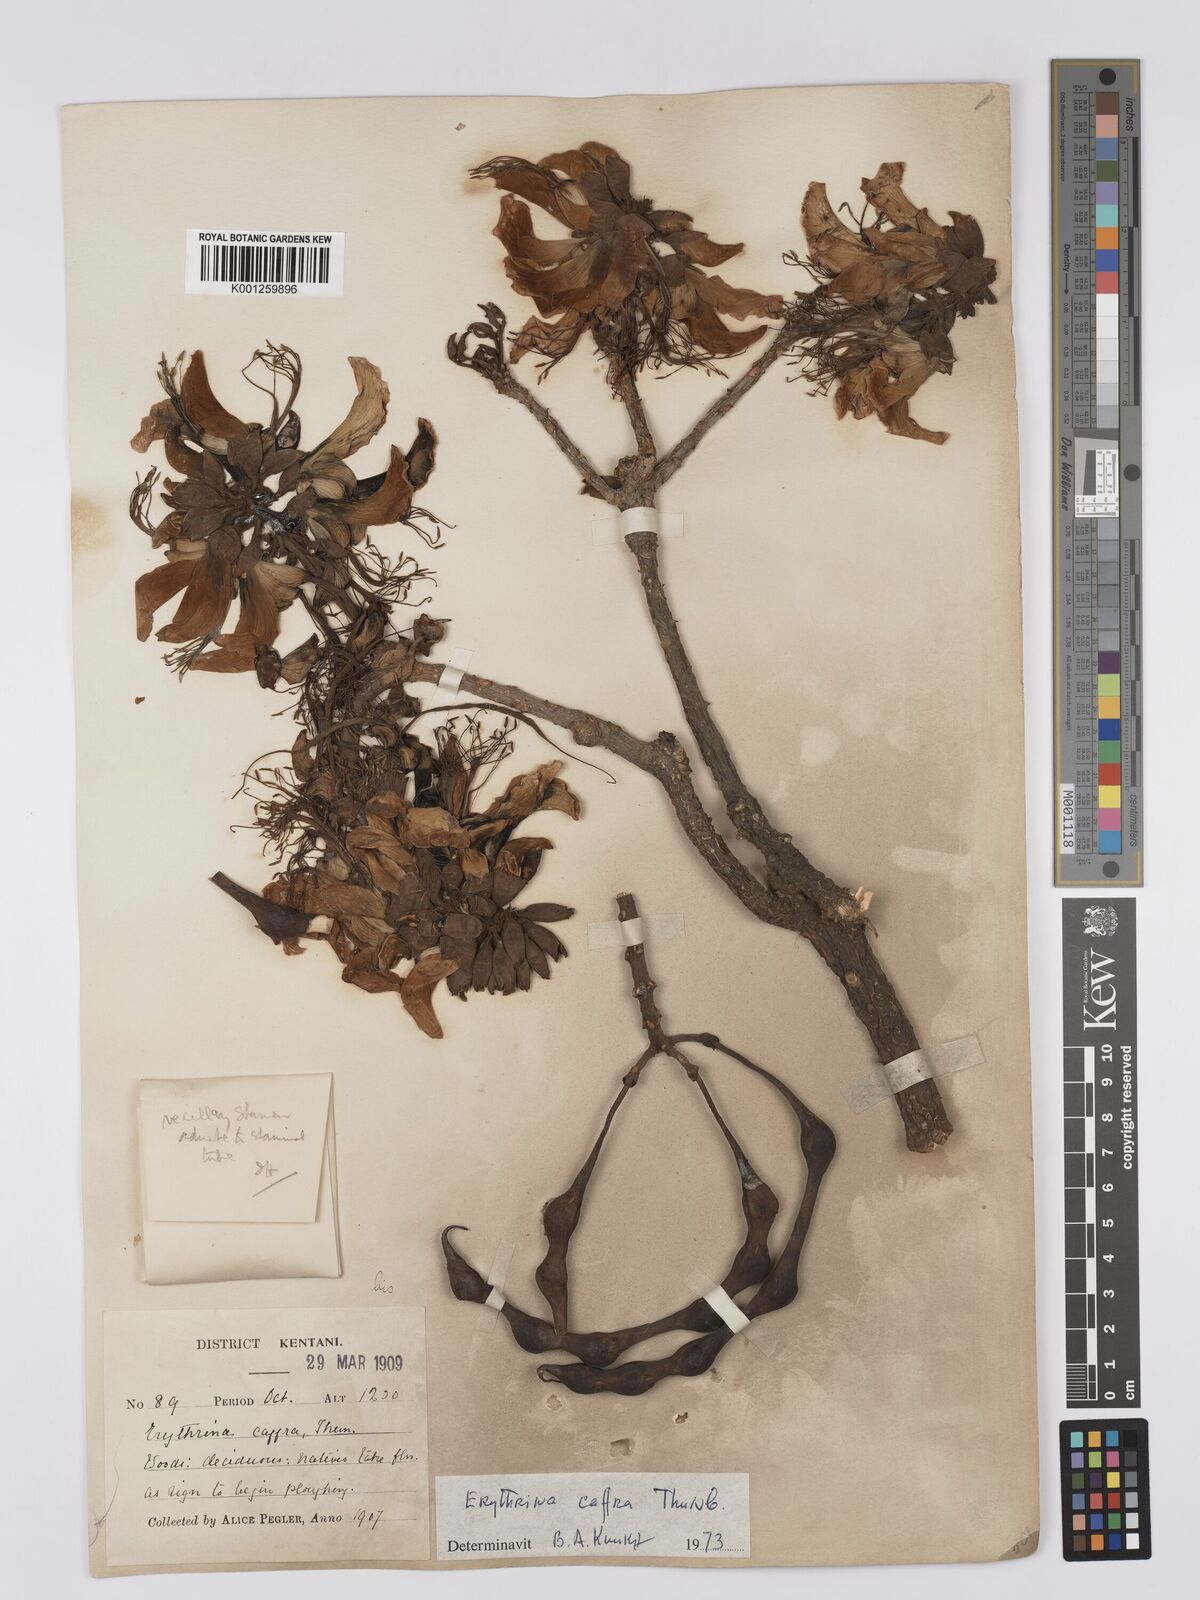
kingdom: Plantae
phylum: Tracheophyta
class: Magnoliopsida
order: Fabales
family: Fabaceae
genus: Erythrina
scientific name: Erythrina caffra
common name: Coast coral tree
